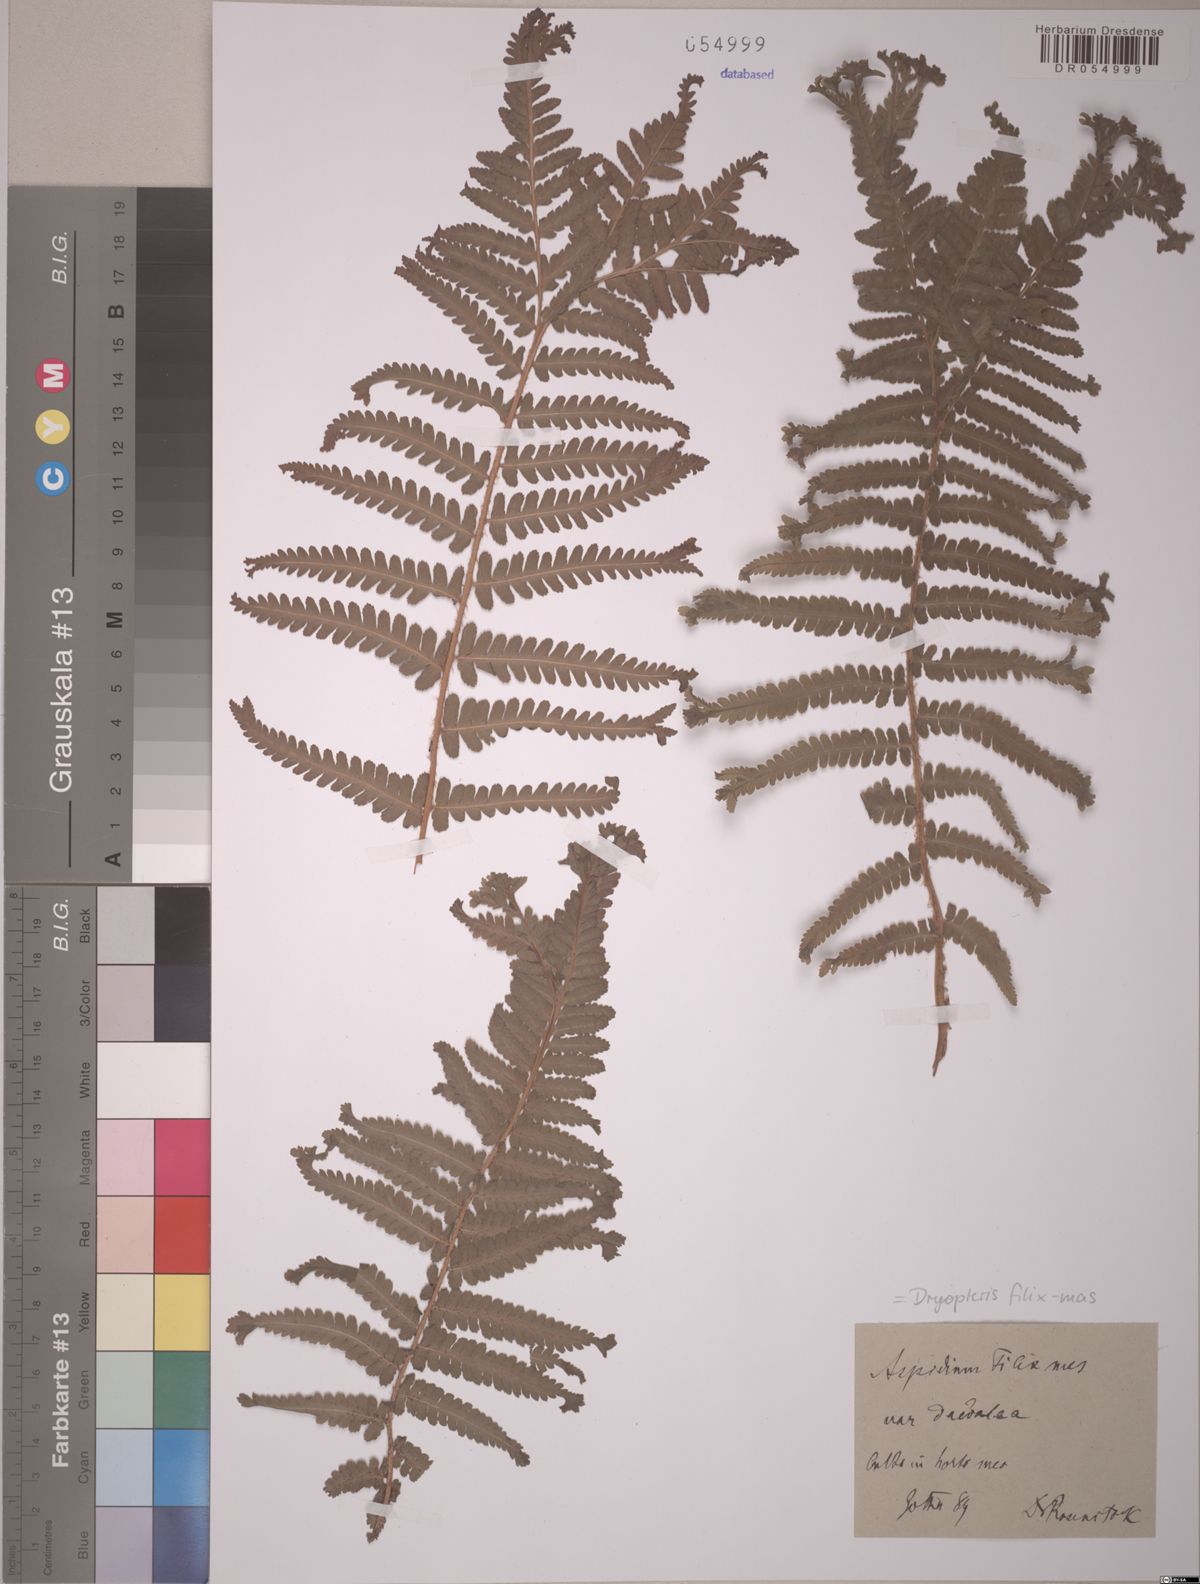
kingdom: Plantae
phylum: Tracheophyta
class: Polypodiopsida
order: Polypodiales
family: Dryopteridaceae
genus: Dryopteris
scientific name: Dryopteris filix-mas
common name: Male fern
